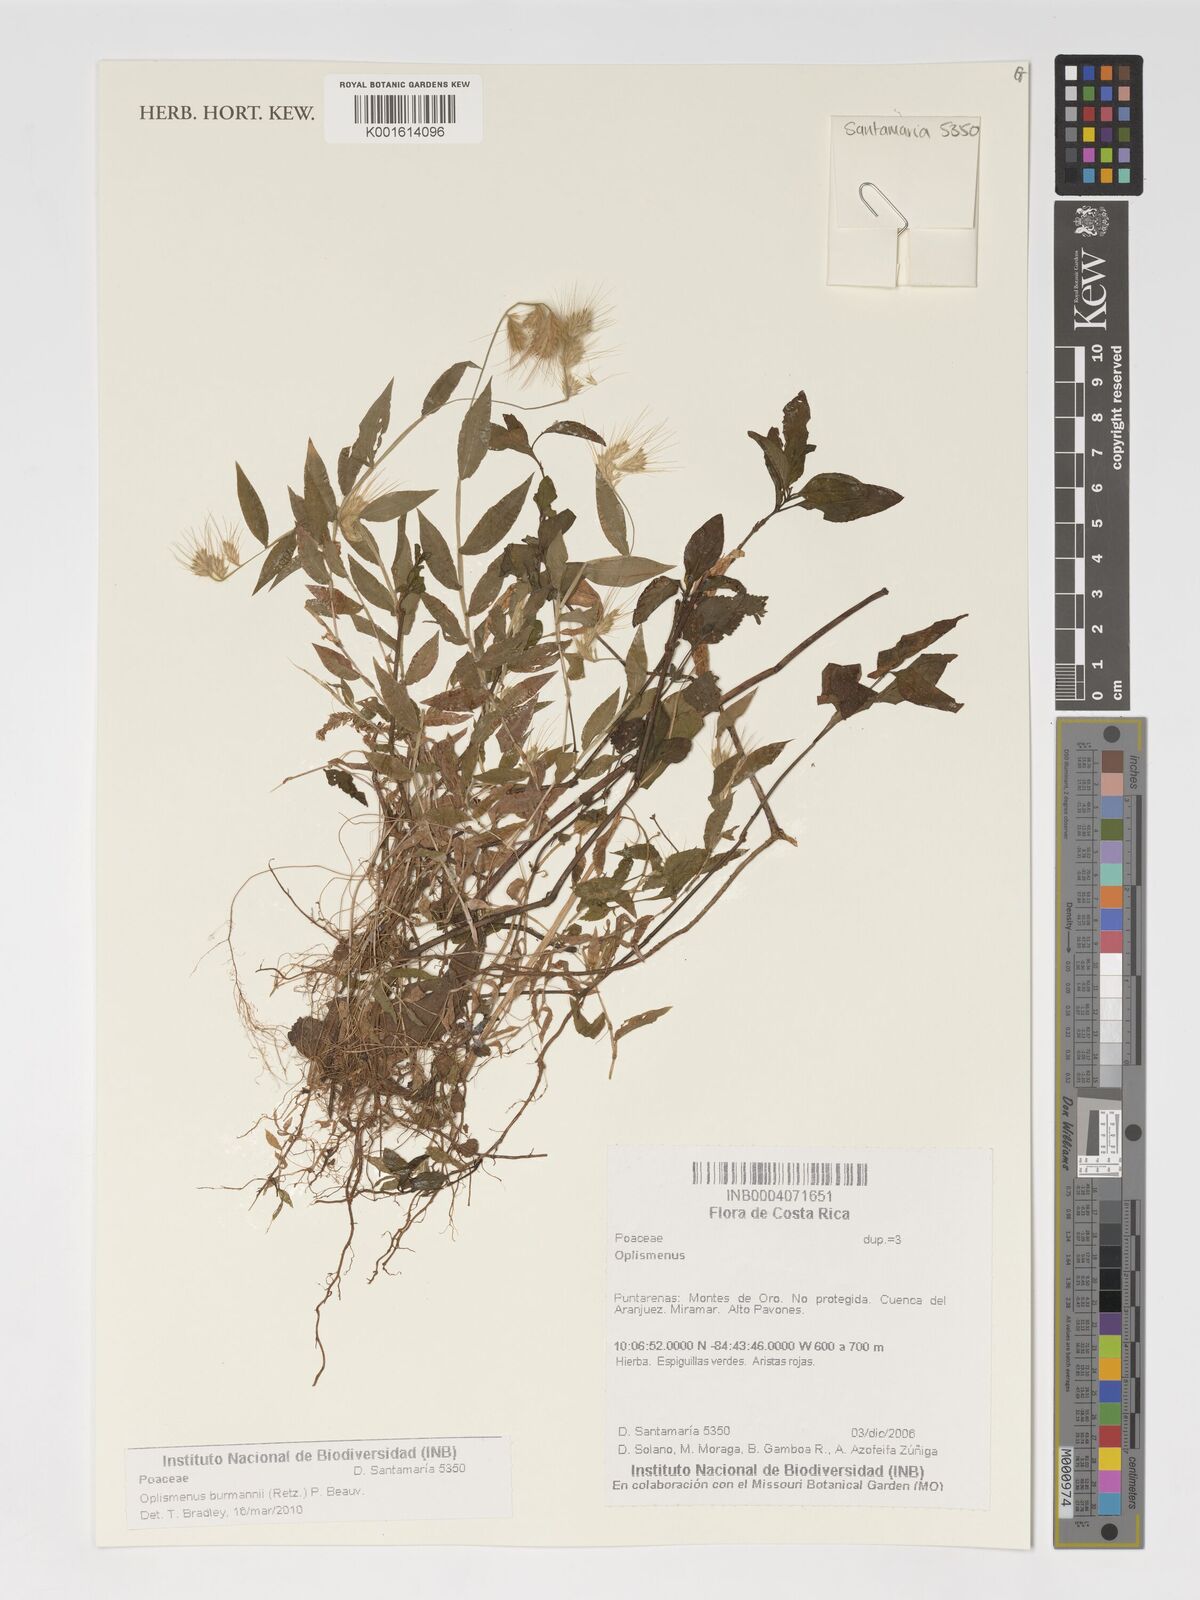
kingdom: Plantae
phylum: Tracheophyta
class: Liliopsida
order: Poales
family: Poaceae
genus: Oplismenus
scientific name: Oplismenus burmanni
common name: Burmann's basketgrass
